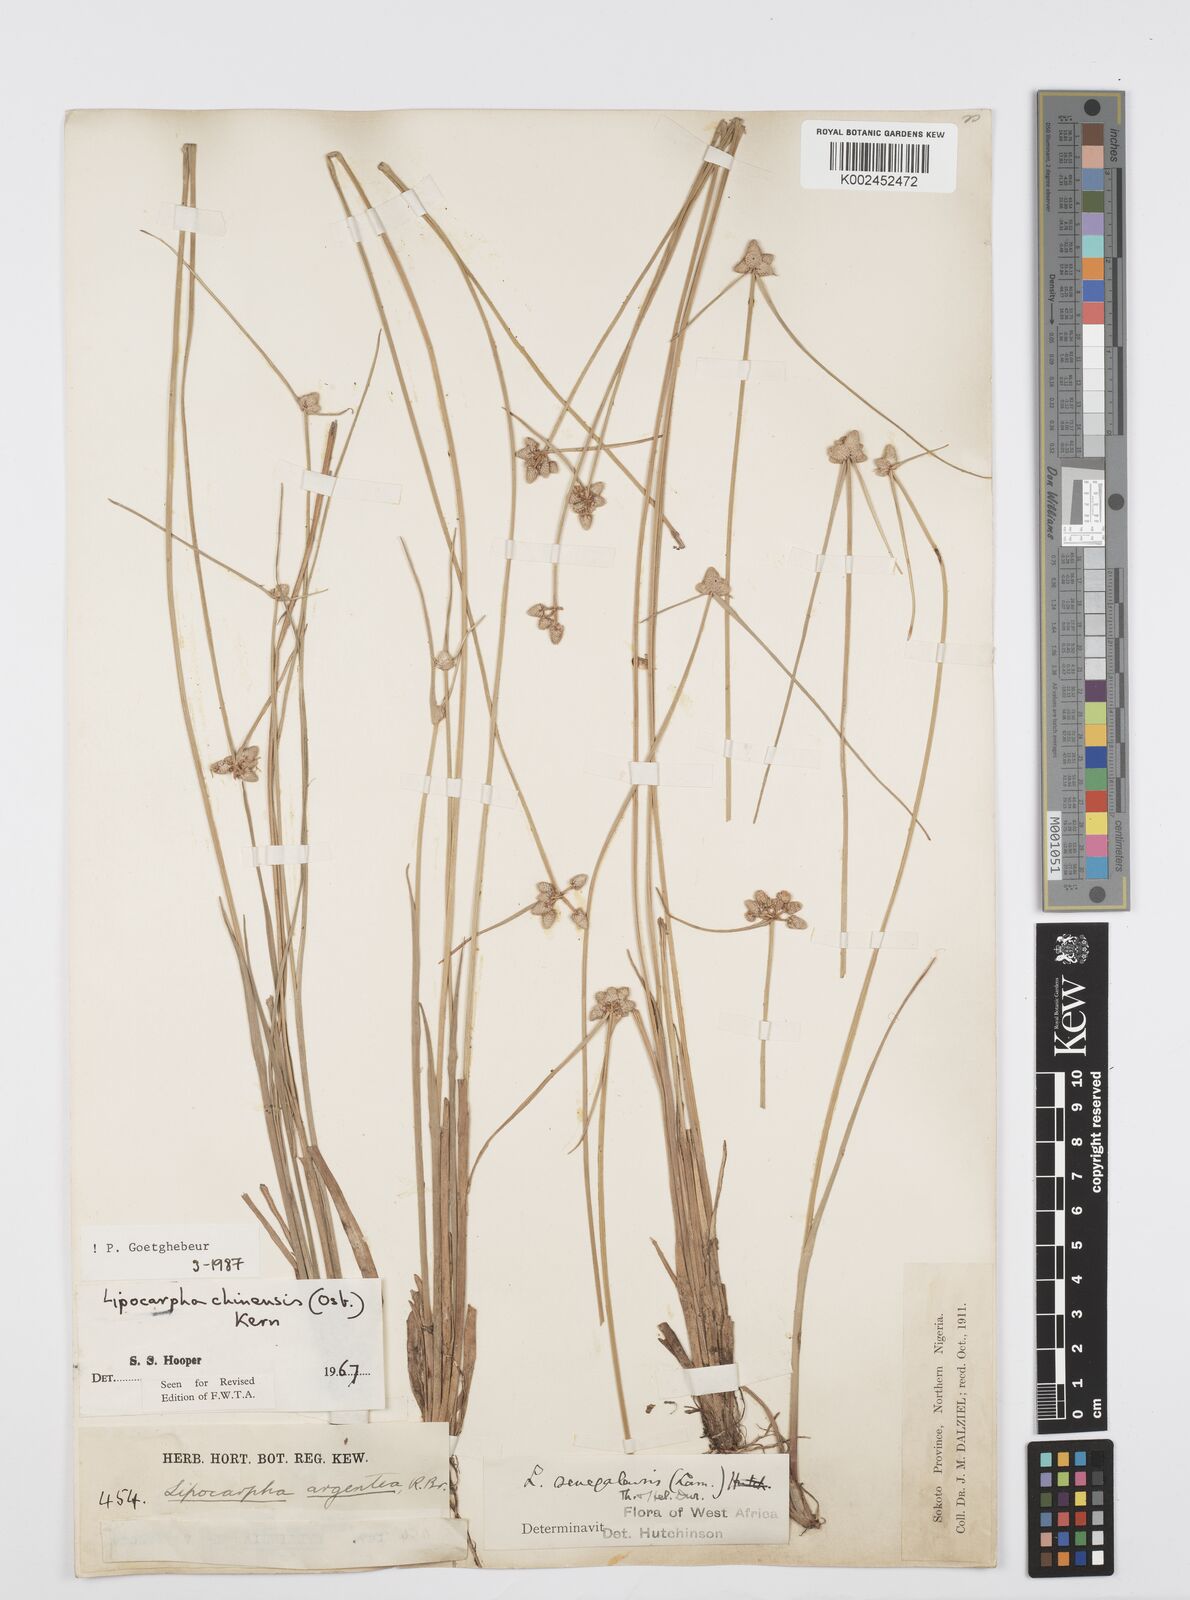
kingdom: Plantae
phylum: Tracheophyta
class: Liliopsida
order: Poales
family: Cyperaceae
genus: Cyperus
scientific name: Cyperus albescens
